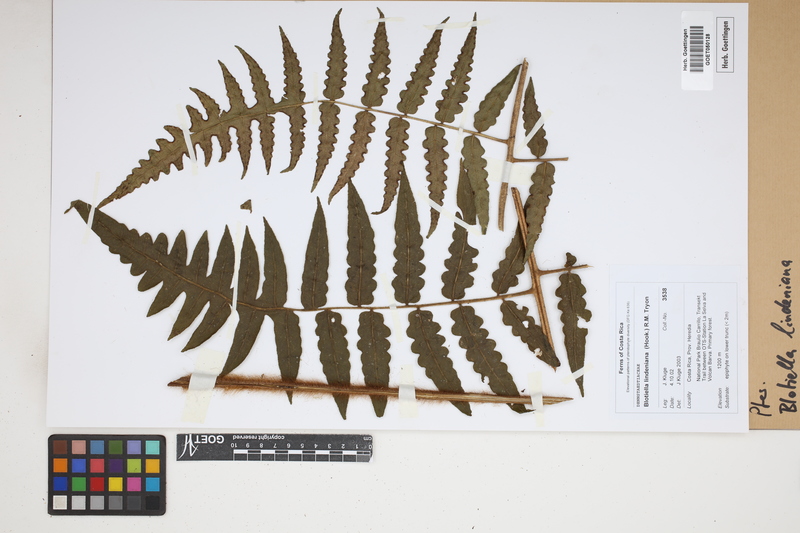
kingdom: Plantae
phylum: Tracheophyta
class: Polypodiopsida
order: Polypodiales
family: Dennstaedtiaceae
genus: Blotiella
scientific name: Blotiella aurita
